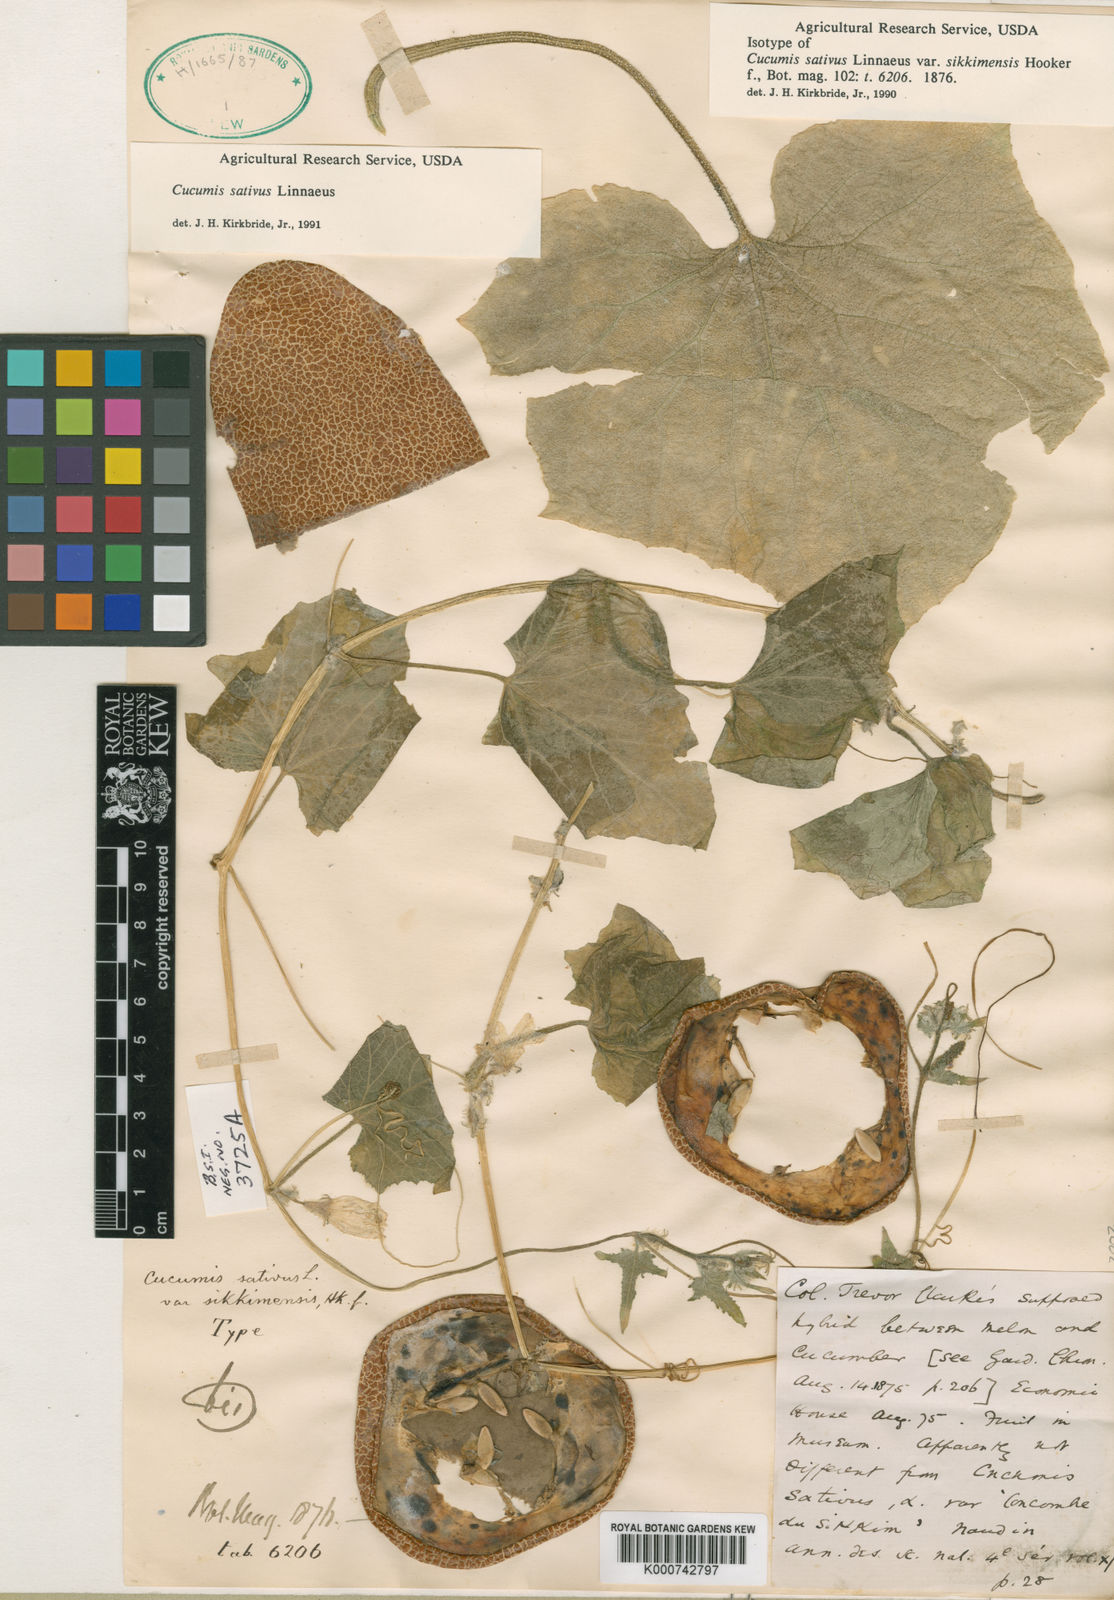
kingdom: Plantae
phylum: Tracheophyta
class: Magnoliopsida
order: Cucurbitales
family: Cucurbitaceae
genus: Cucumis
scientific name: Cucumis sativus
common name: Cucumber
